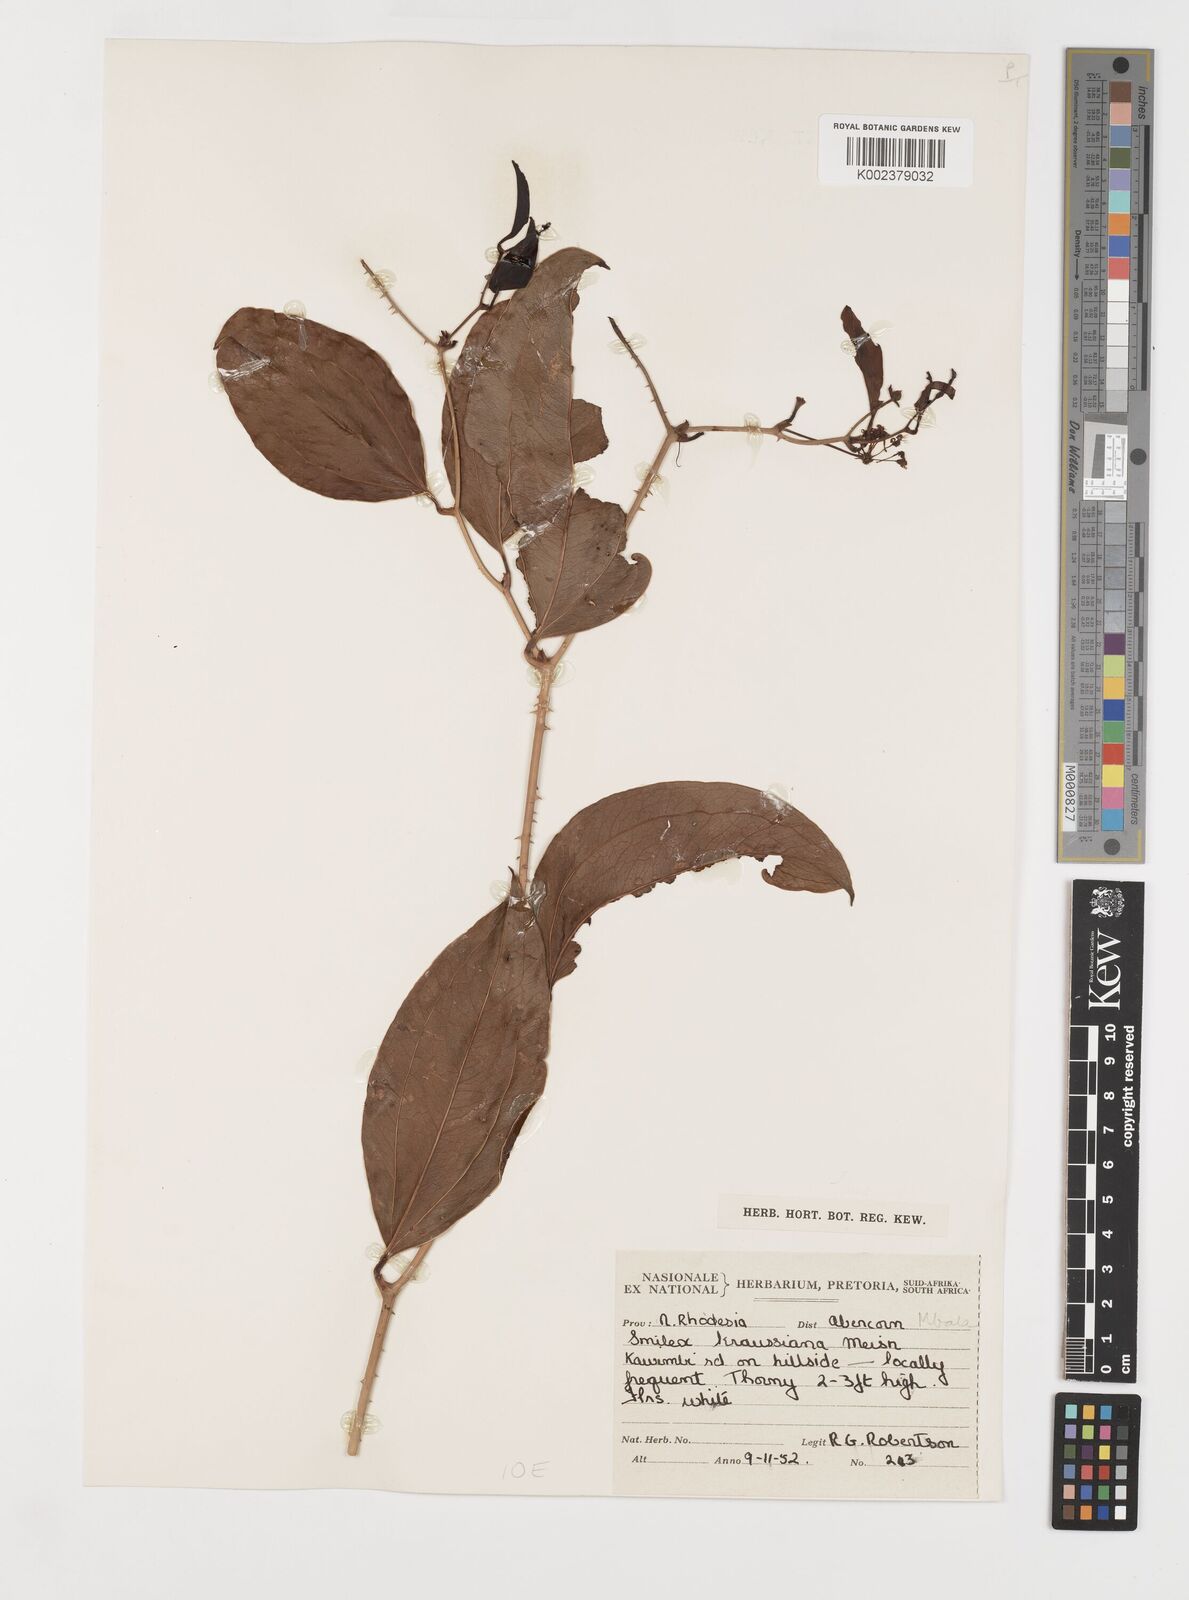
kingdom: Plantae
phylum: Tracheophyta
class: Liliopsida
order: Liliales
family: Smilacaceae
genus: Smilax
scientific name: Smilax anceps
